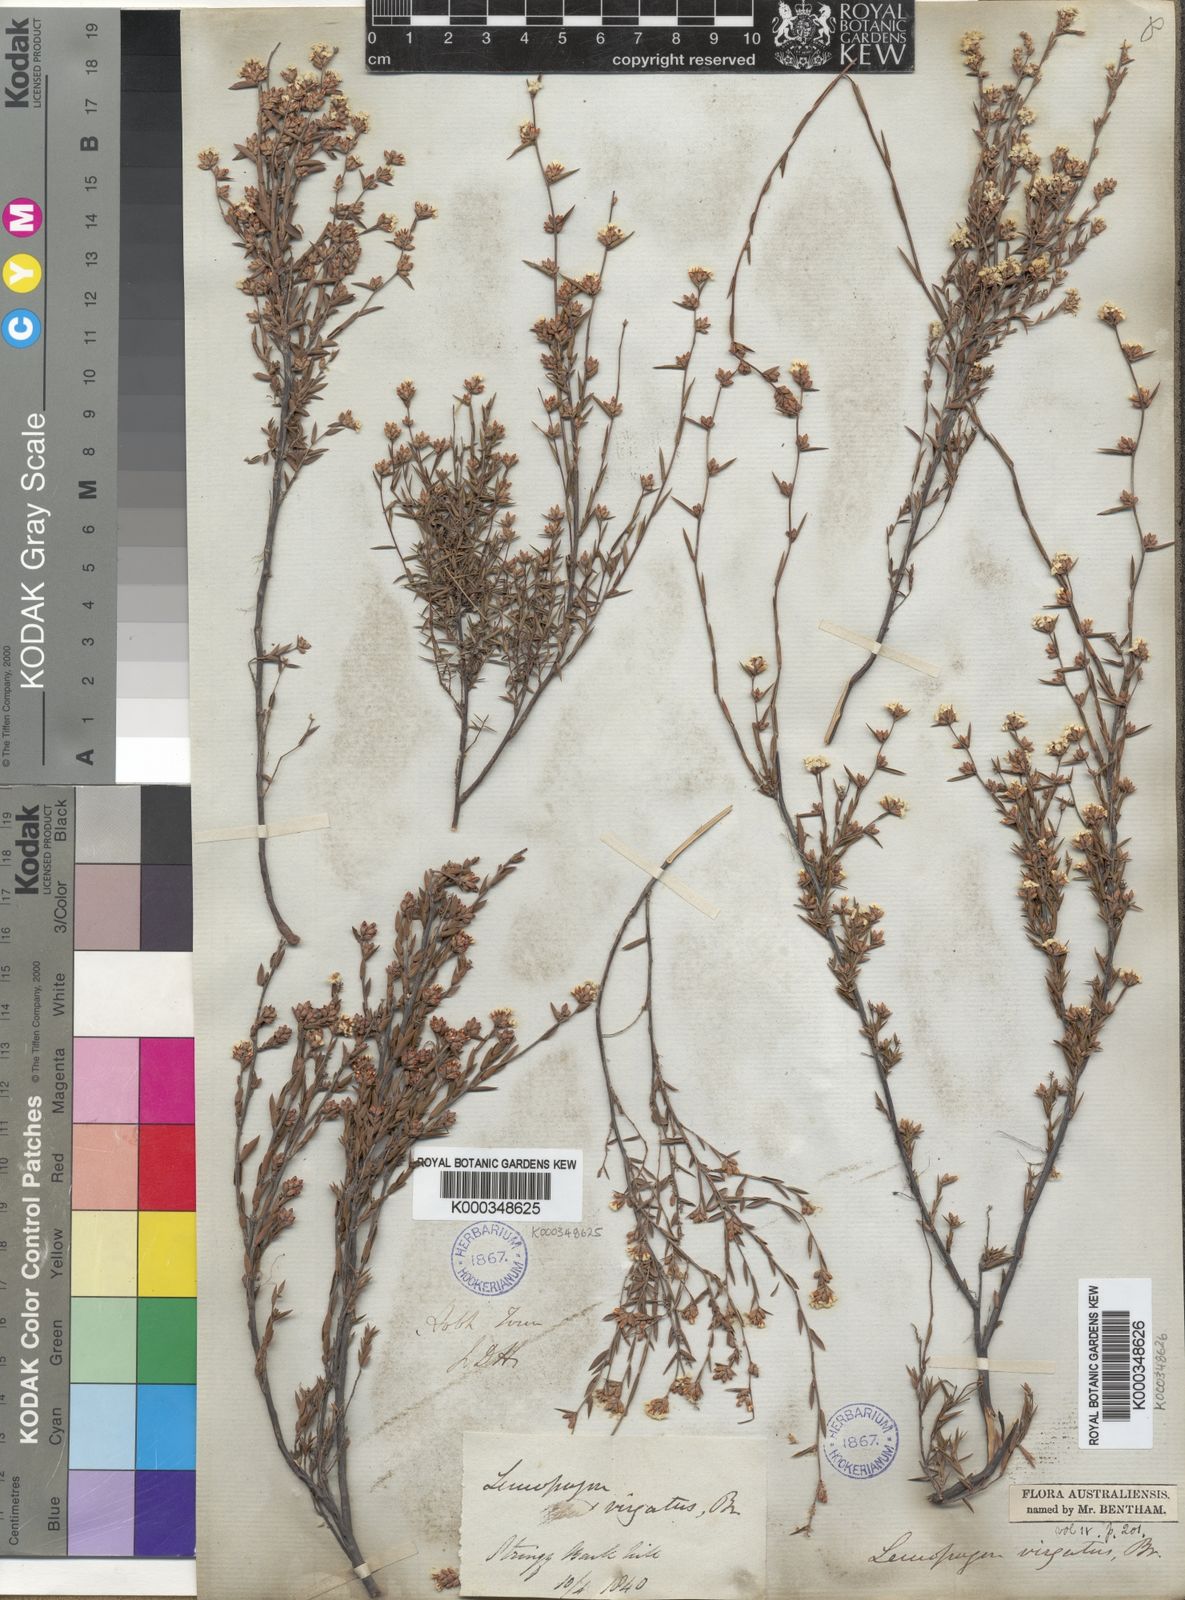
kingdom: Plantae
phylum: Tracheophyta
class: Magnoliopsida
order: Ericales
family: Ericaceae
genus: Leucopogon
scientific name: Leucopogon virgatus
